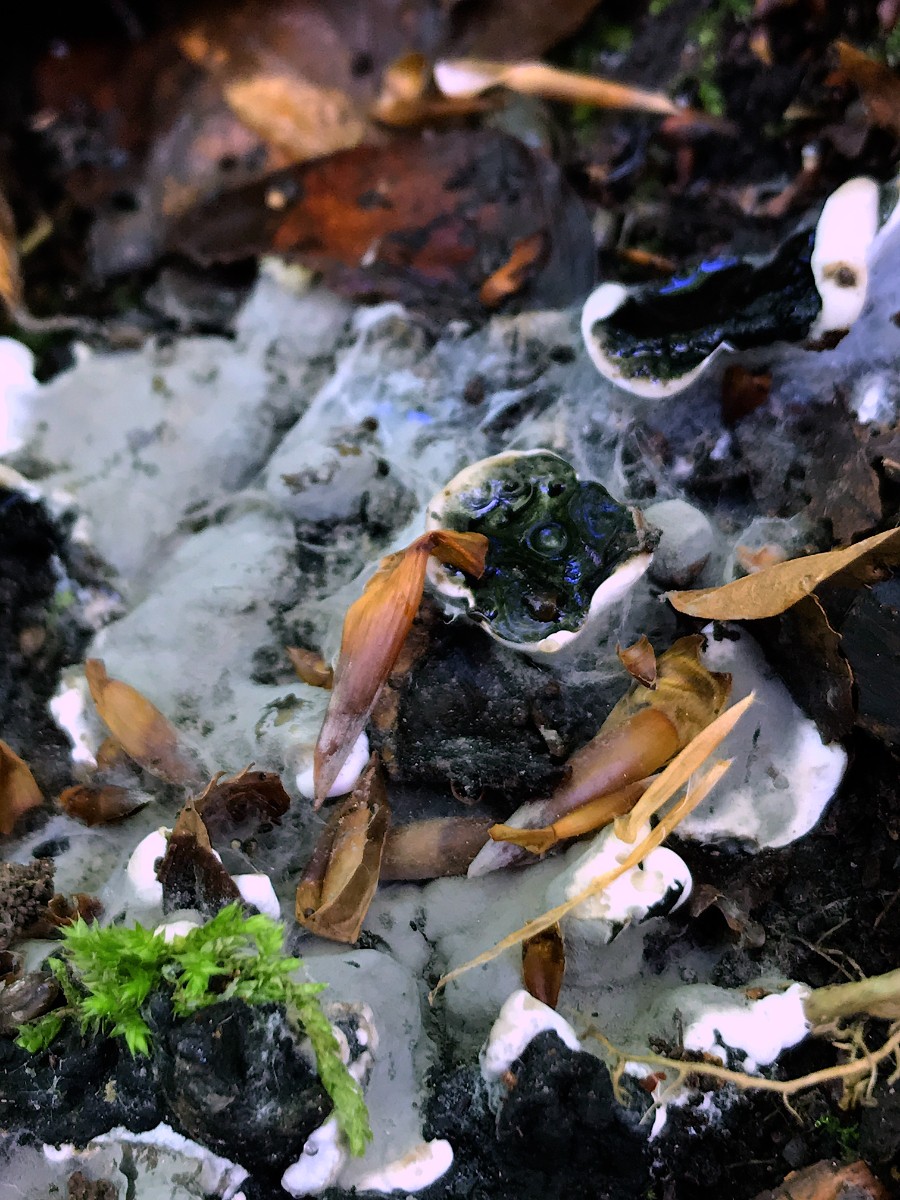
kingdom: Fungi
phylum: Ascomycota
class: Sordariomycetes
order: Xylariales
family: Xylariaceae
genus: Kretzschmaria
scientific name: Kretzschmaria deusta
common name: stor kulsvamp
